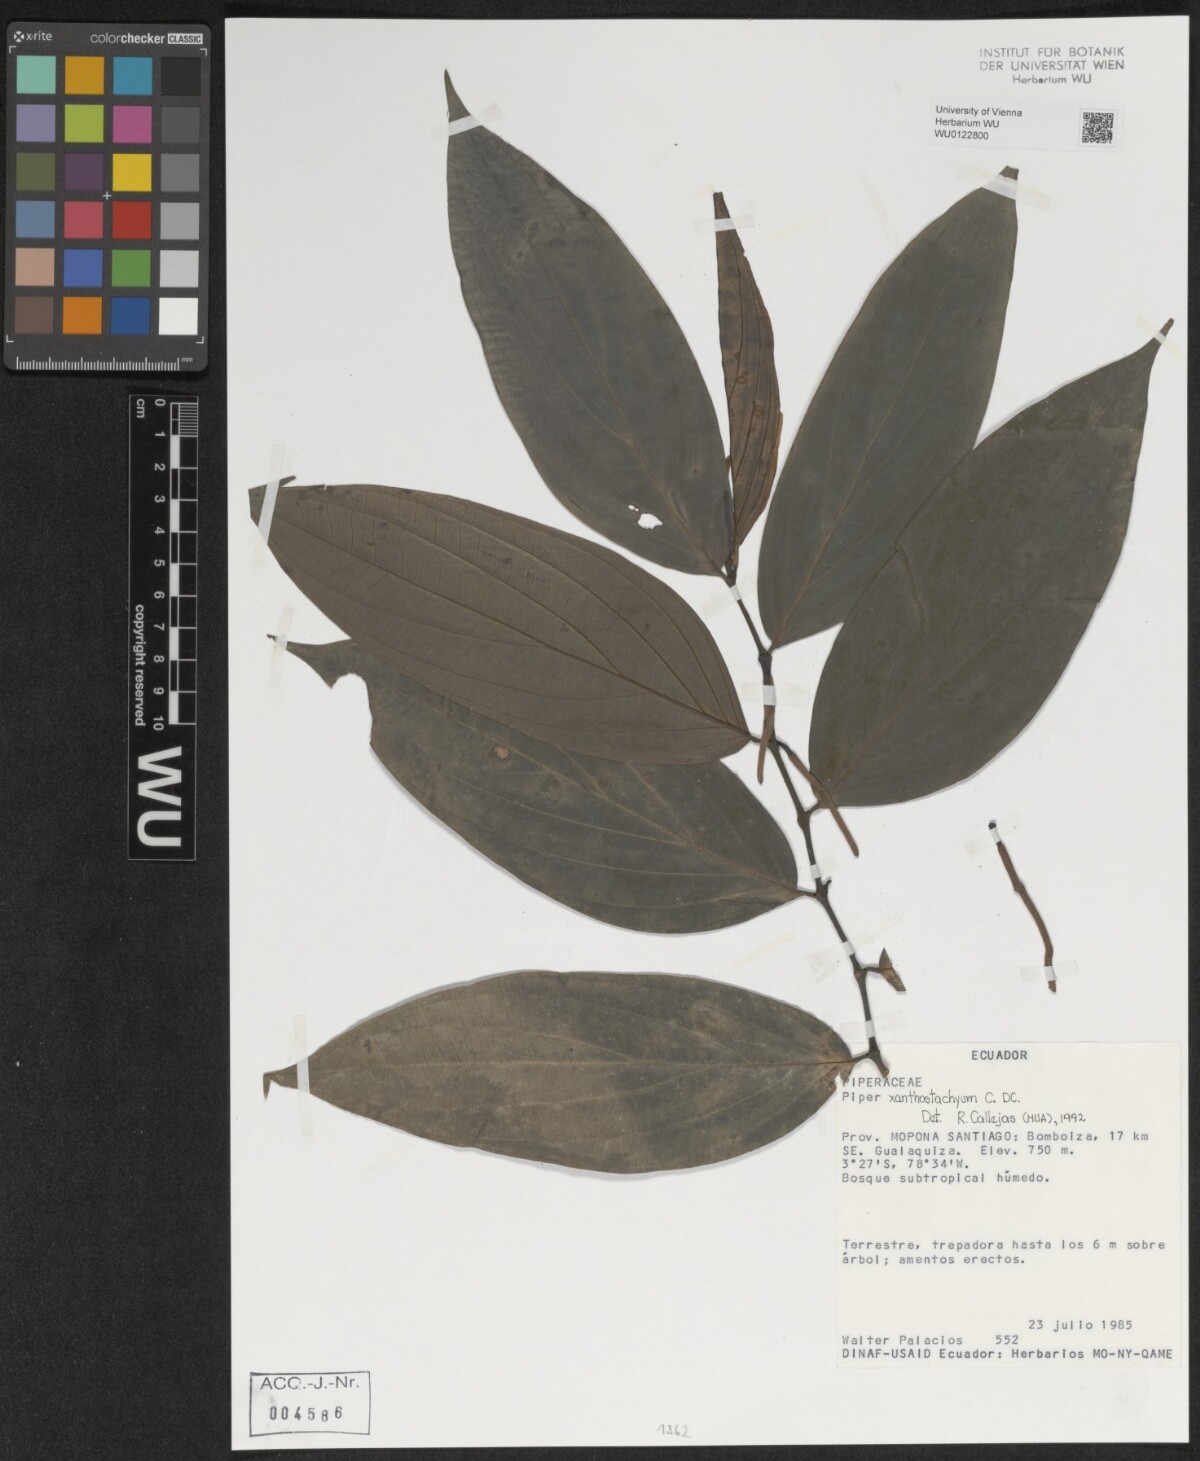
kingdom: Plantae
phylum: Tracheophyta
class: Magnoliopsida
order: Piperales
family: Piperaceae
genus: Piper
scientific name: Piper xanthostachyum
